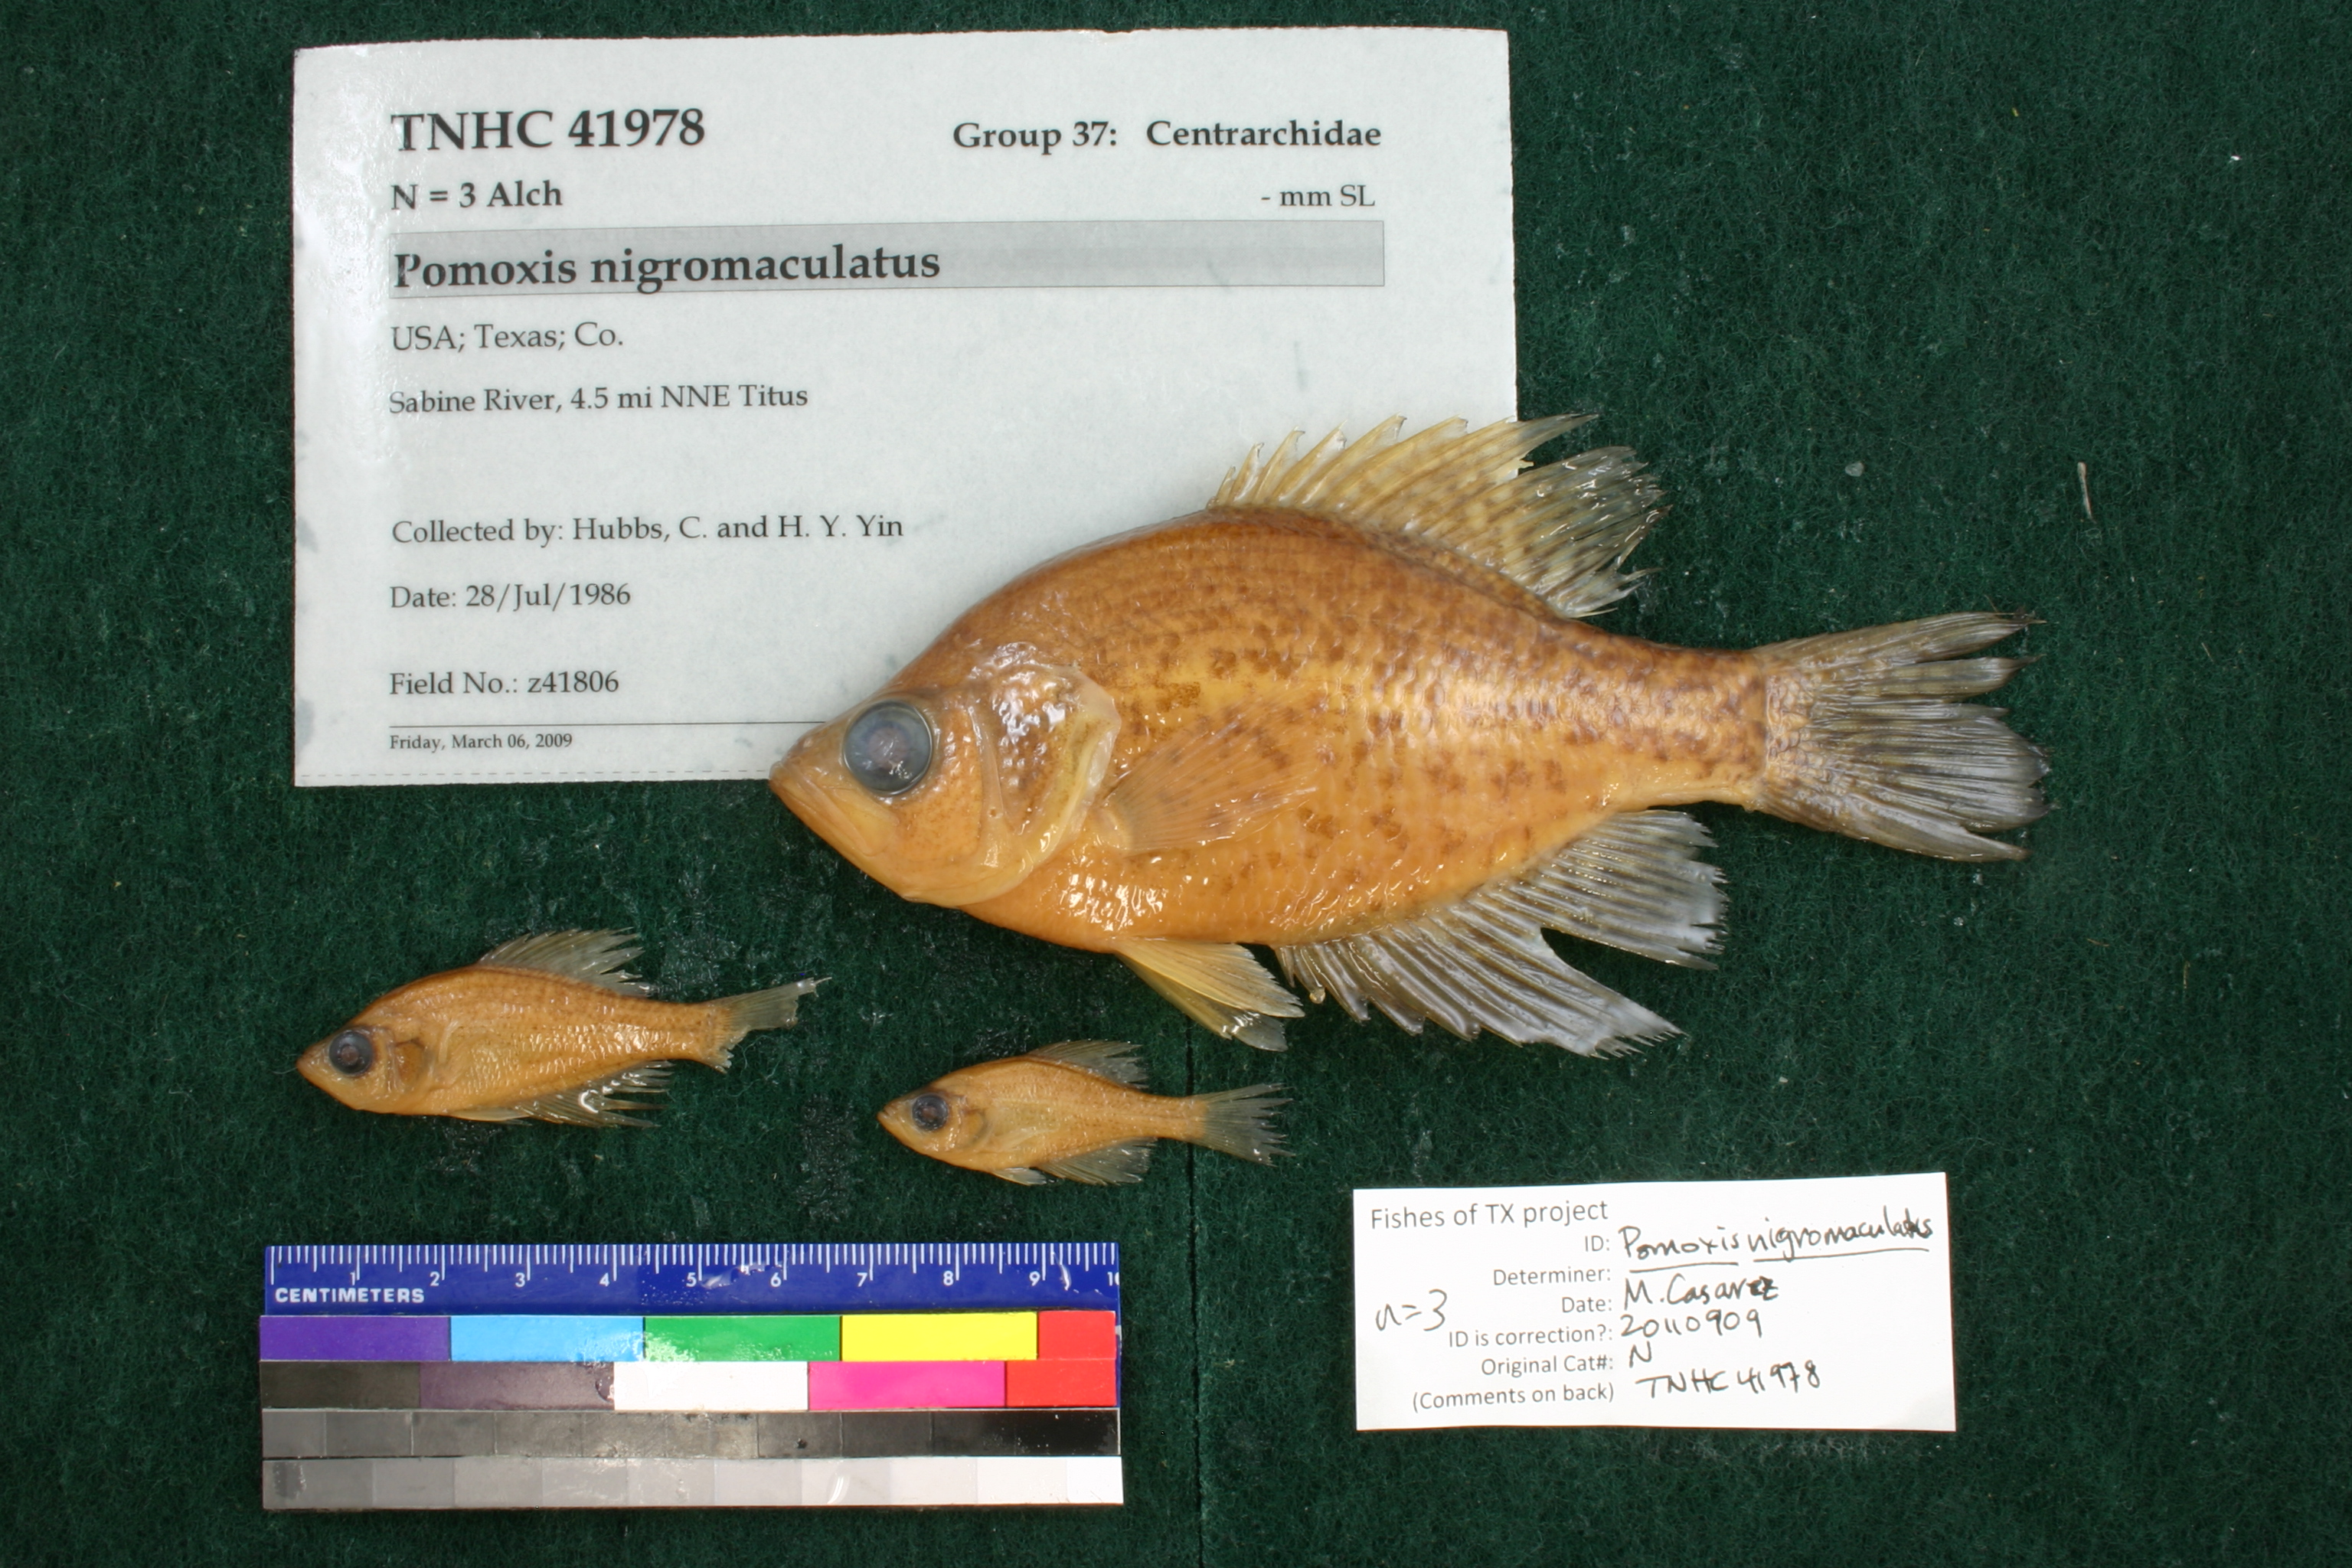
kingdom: Animalia
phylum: Chordata
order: Perciformes
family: Centrarchidae
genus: Pomoxis
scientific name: Pomoxis nigromaculatus
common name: Black crappie
